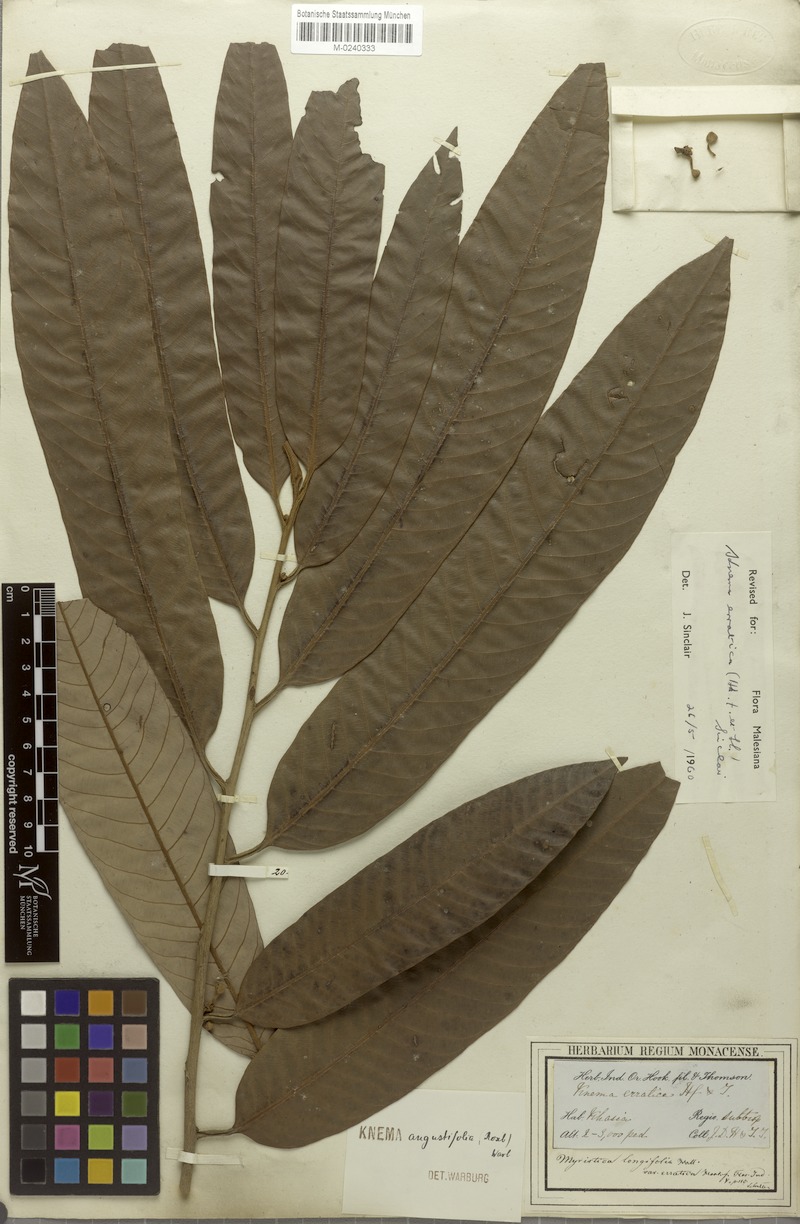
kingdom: Plantae
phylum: Tracheophyta
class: Magnoliopsida
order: Magnoliales
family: Myristicaceae
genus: Knema
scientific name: Knema erratica
